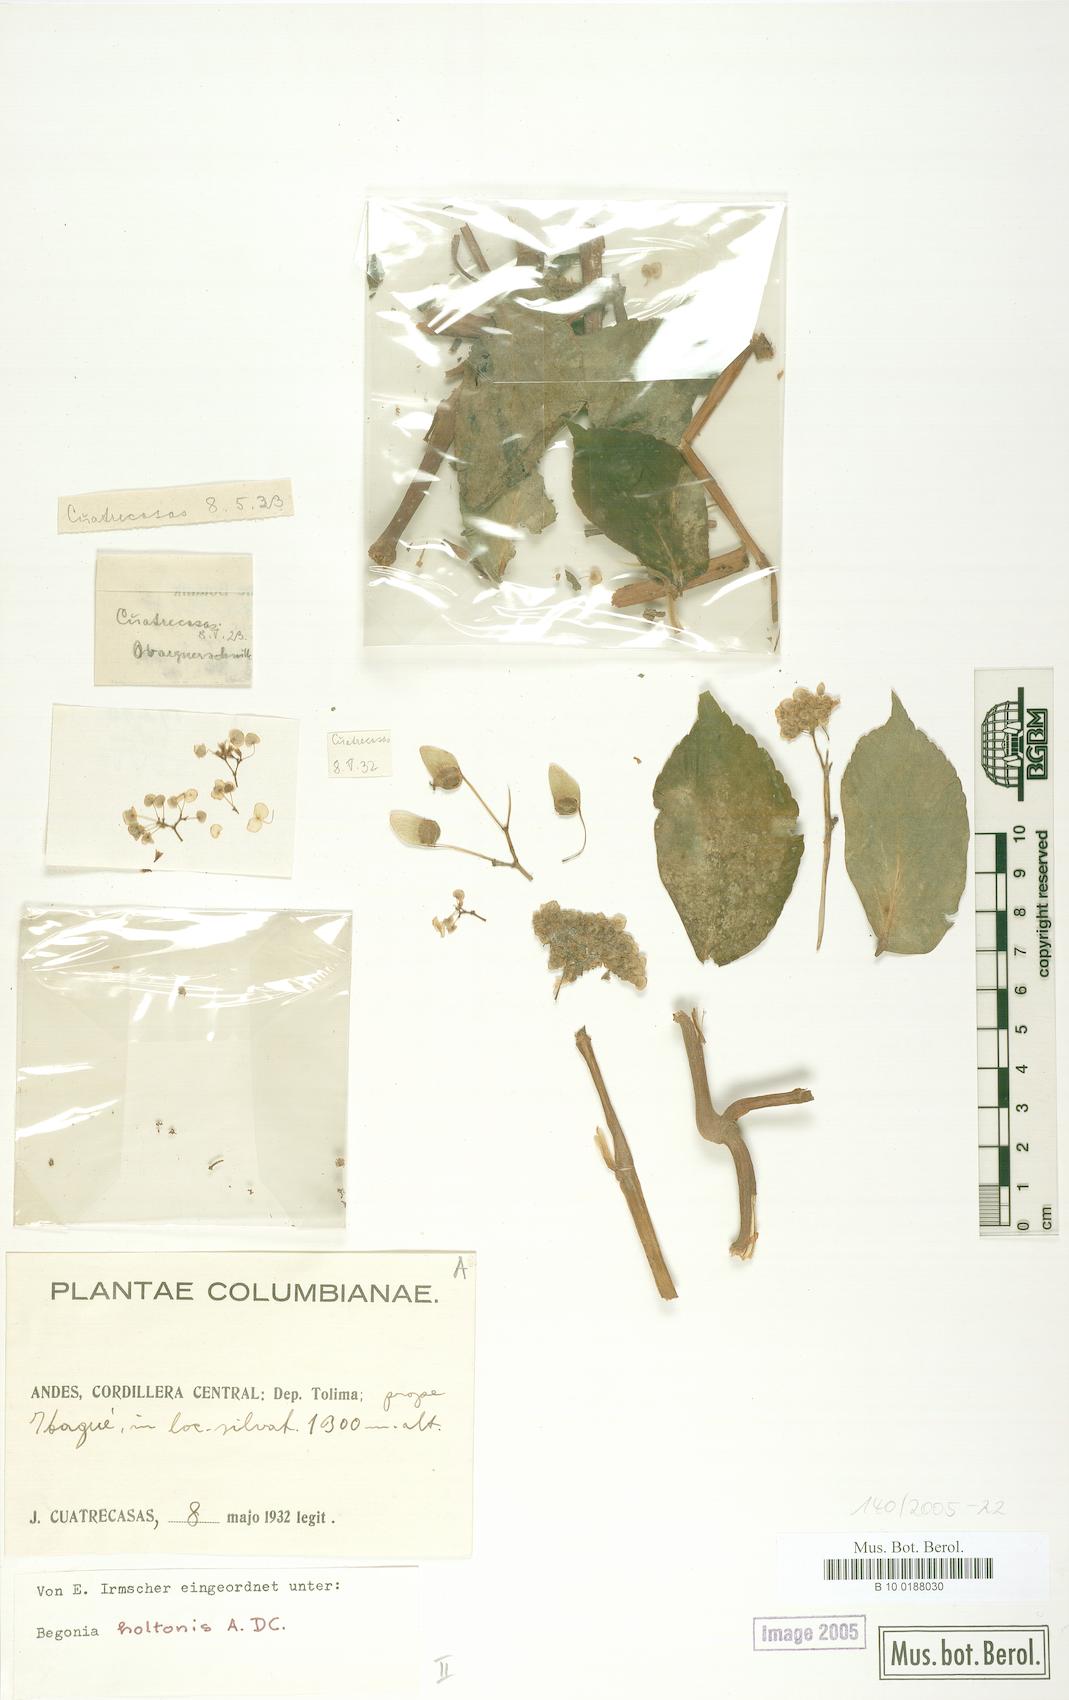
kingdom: Plantae
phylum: Tracheophyta
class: Magnoliopsida
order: Cucurbitales
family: Begoniaceae
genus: Begonia
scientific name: Begonia holtonis
